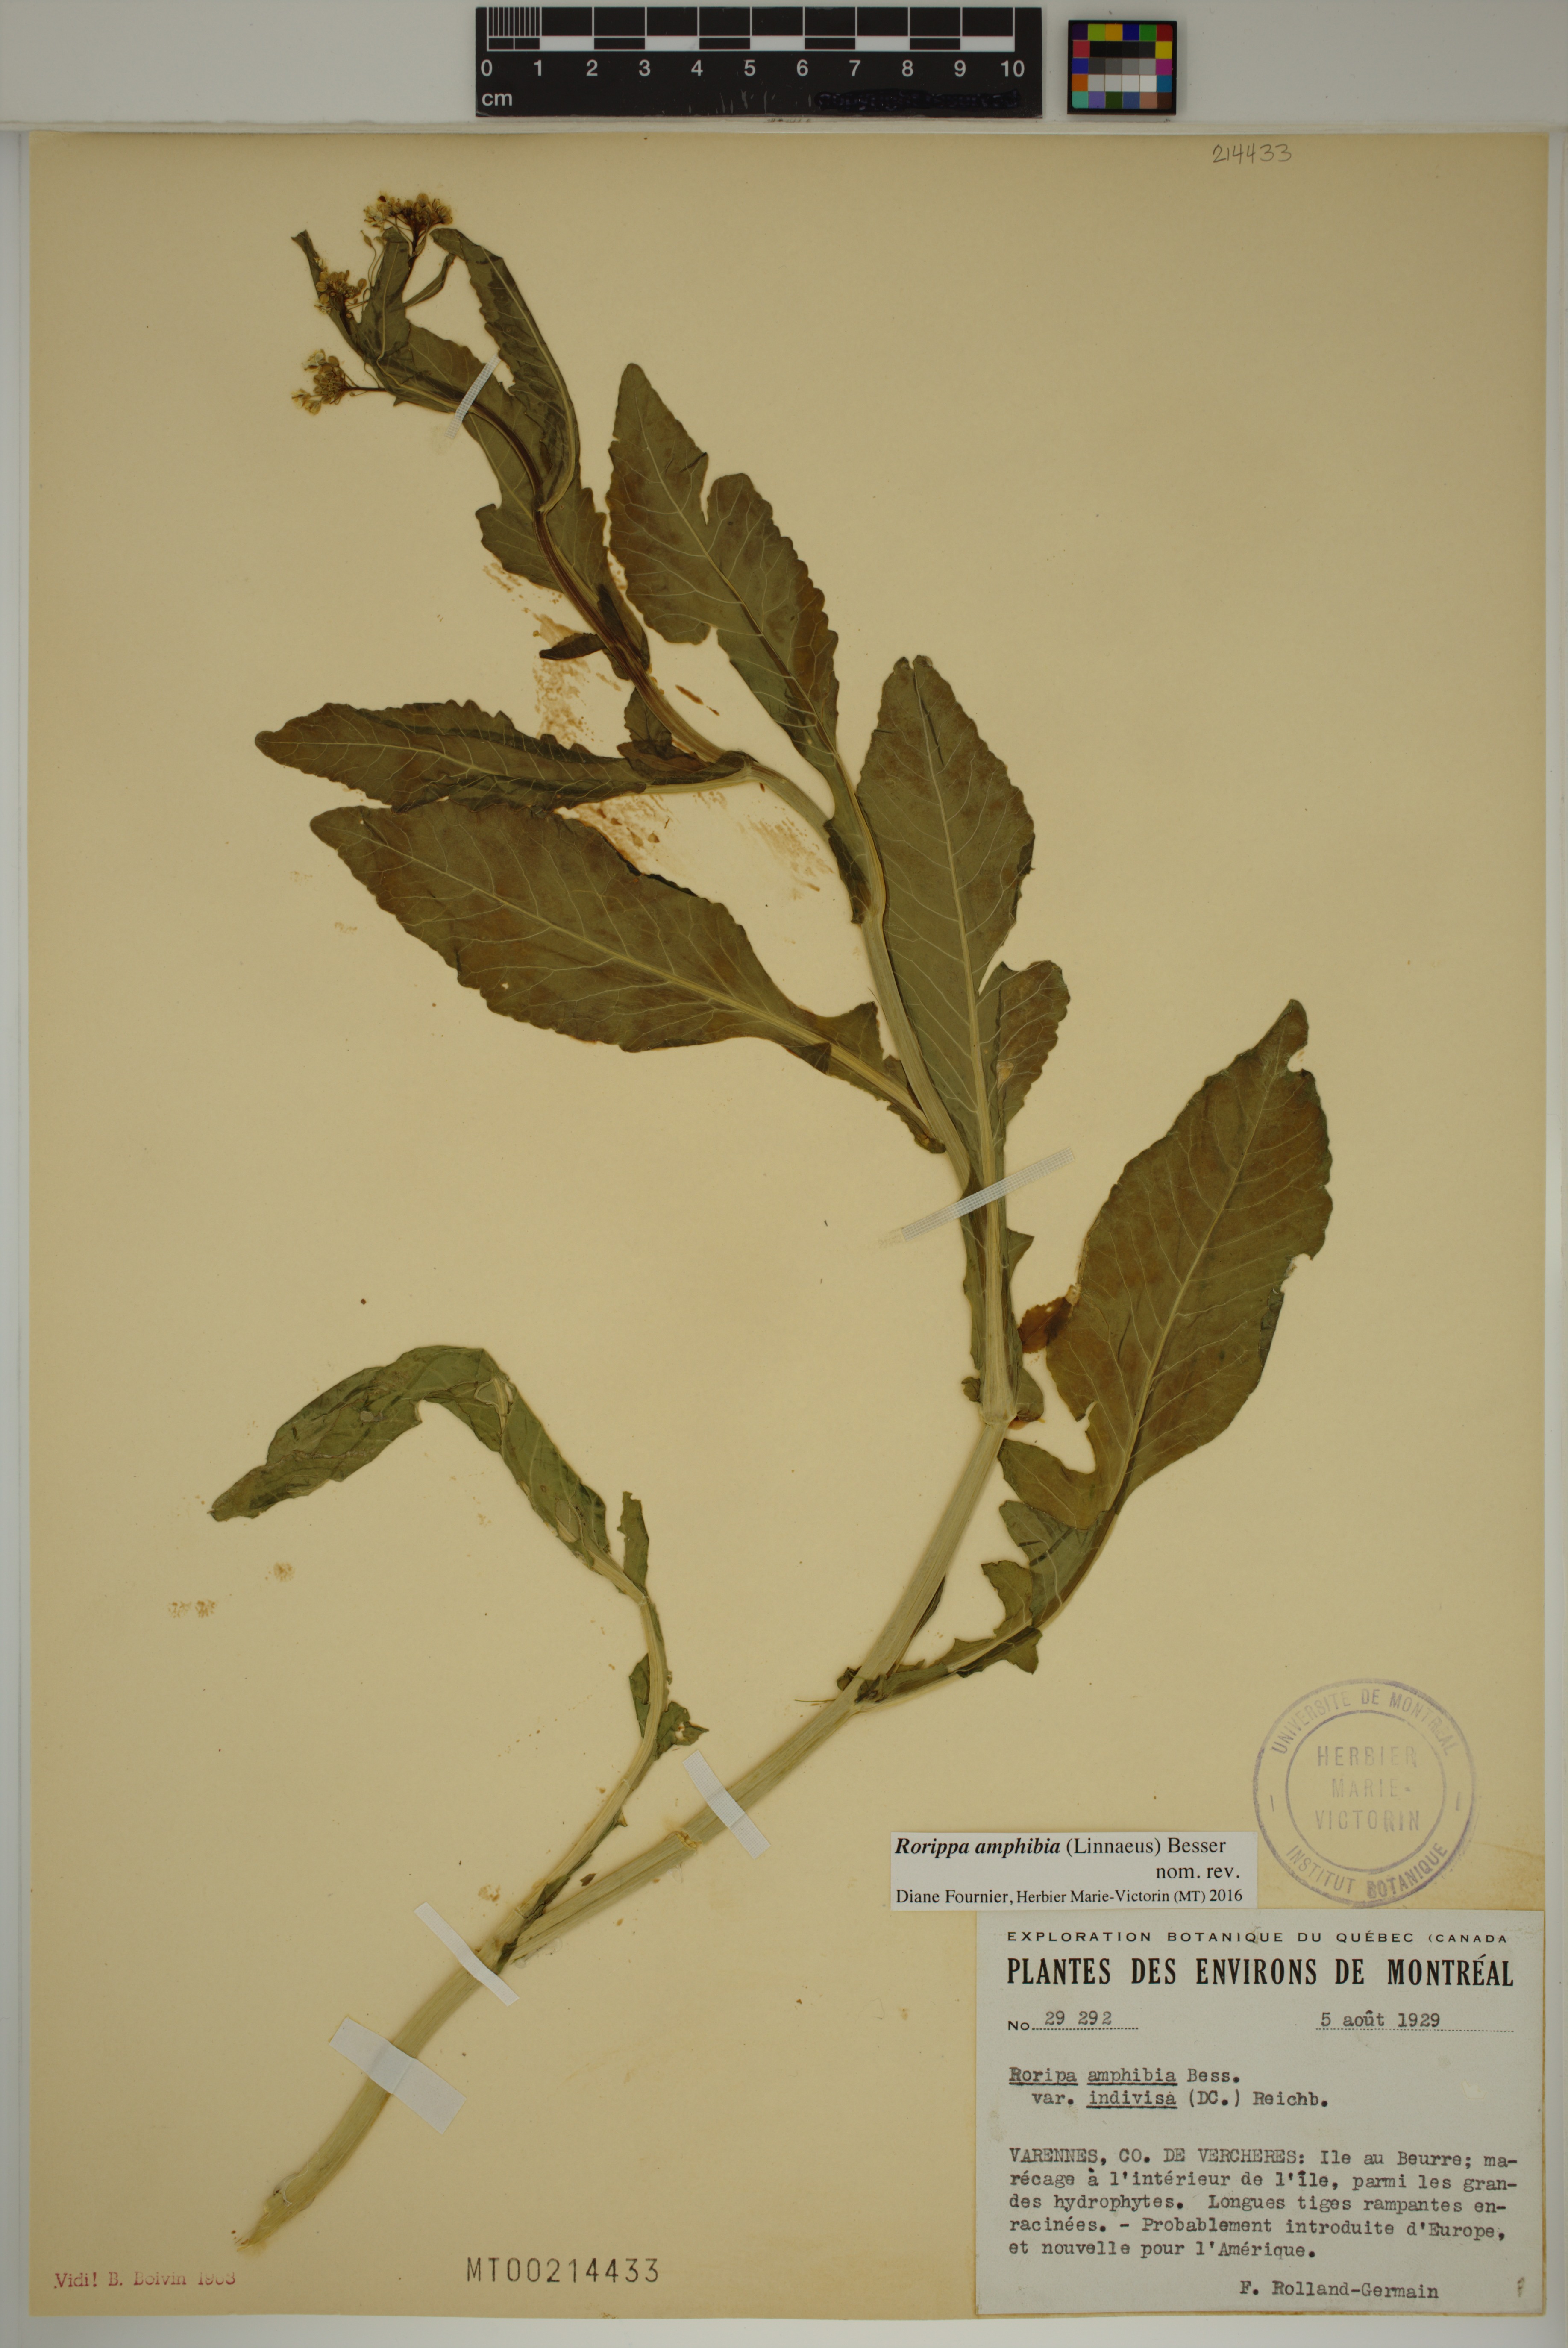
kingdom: Plantae
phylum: Tracheophyta
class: Magnoliopsida
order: Brassicales
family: Brassicaceae
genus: Rorippa
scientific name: Rorippa amphibia
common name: Great yellow-cress
